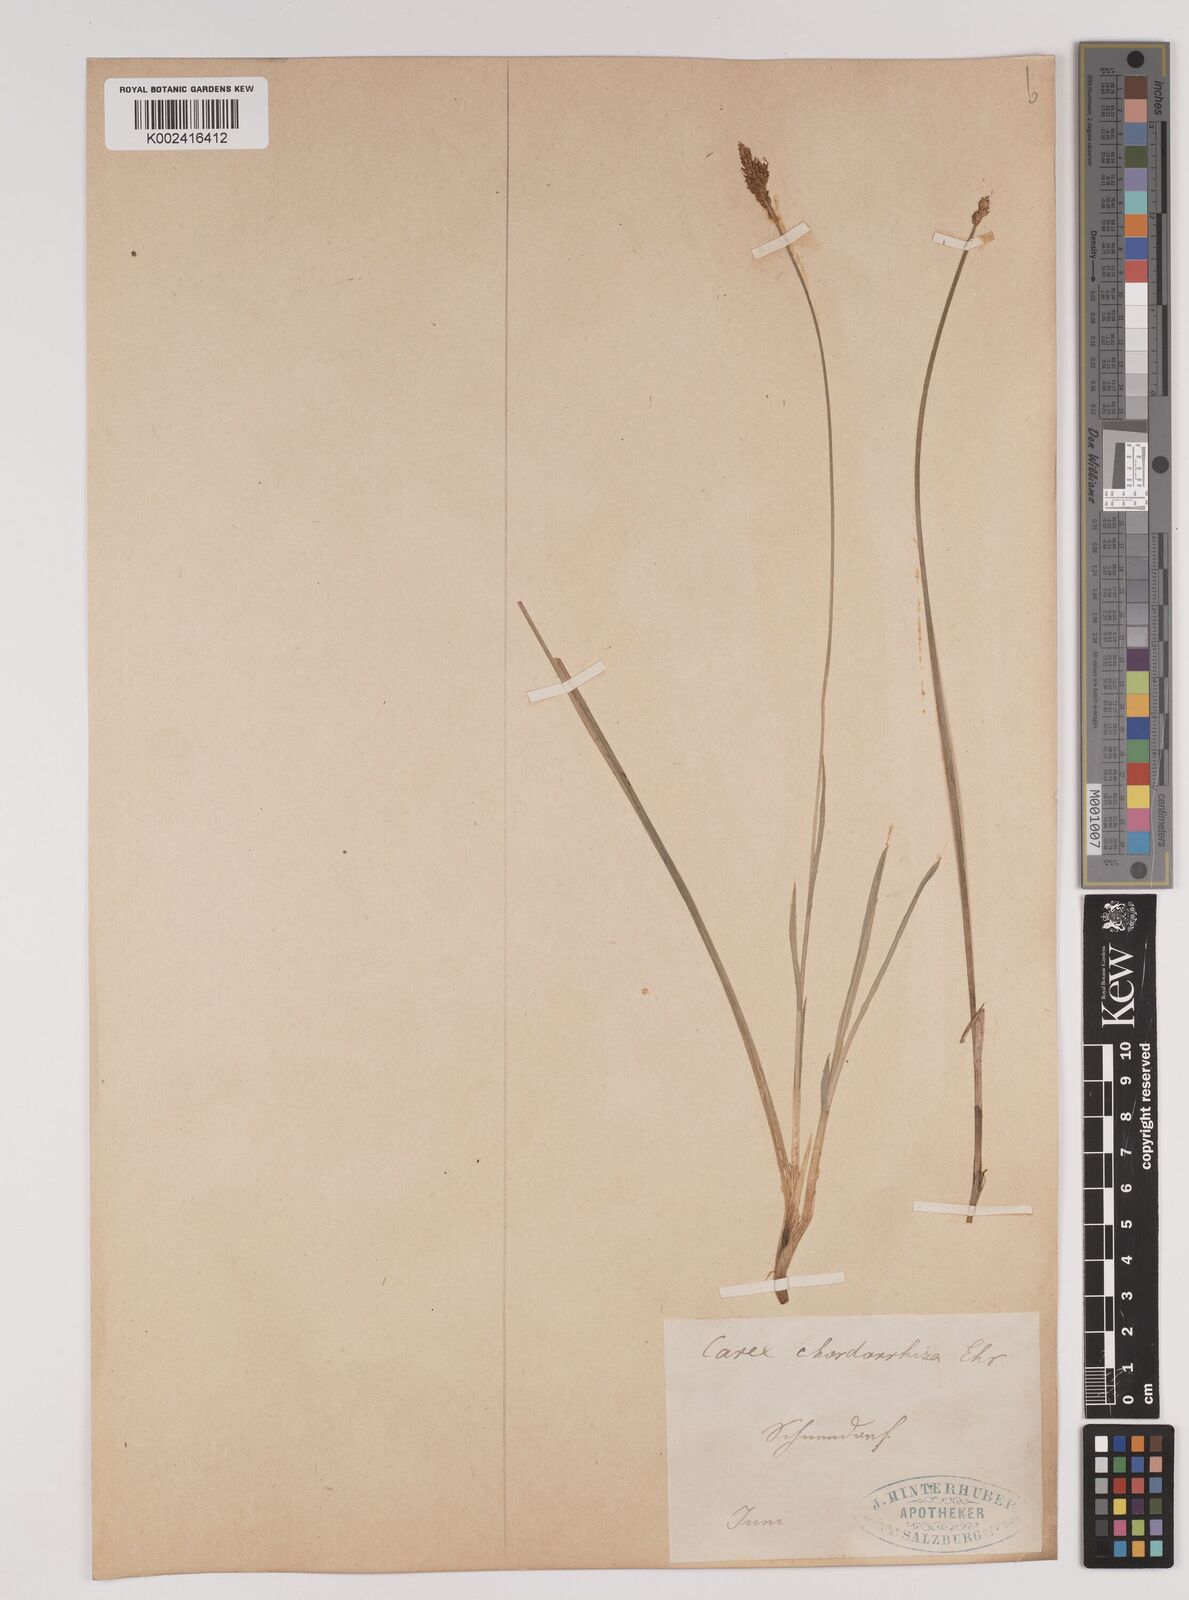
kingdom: Plantae
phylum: Tracheophyta
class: Liliopsida
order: Poales
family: Cyperaceae
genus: Carex
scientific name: Carex chordorrhiza
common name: String sedge
